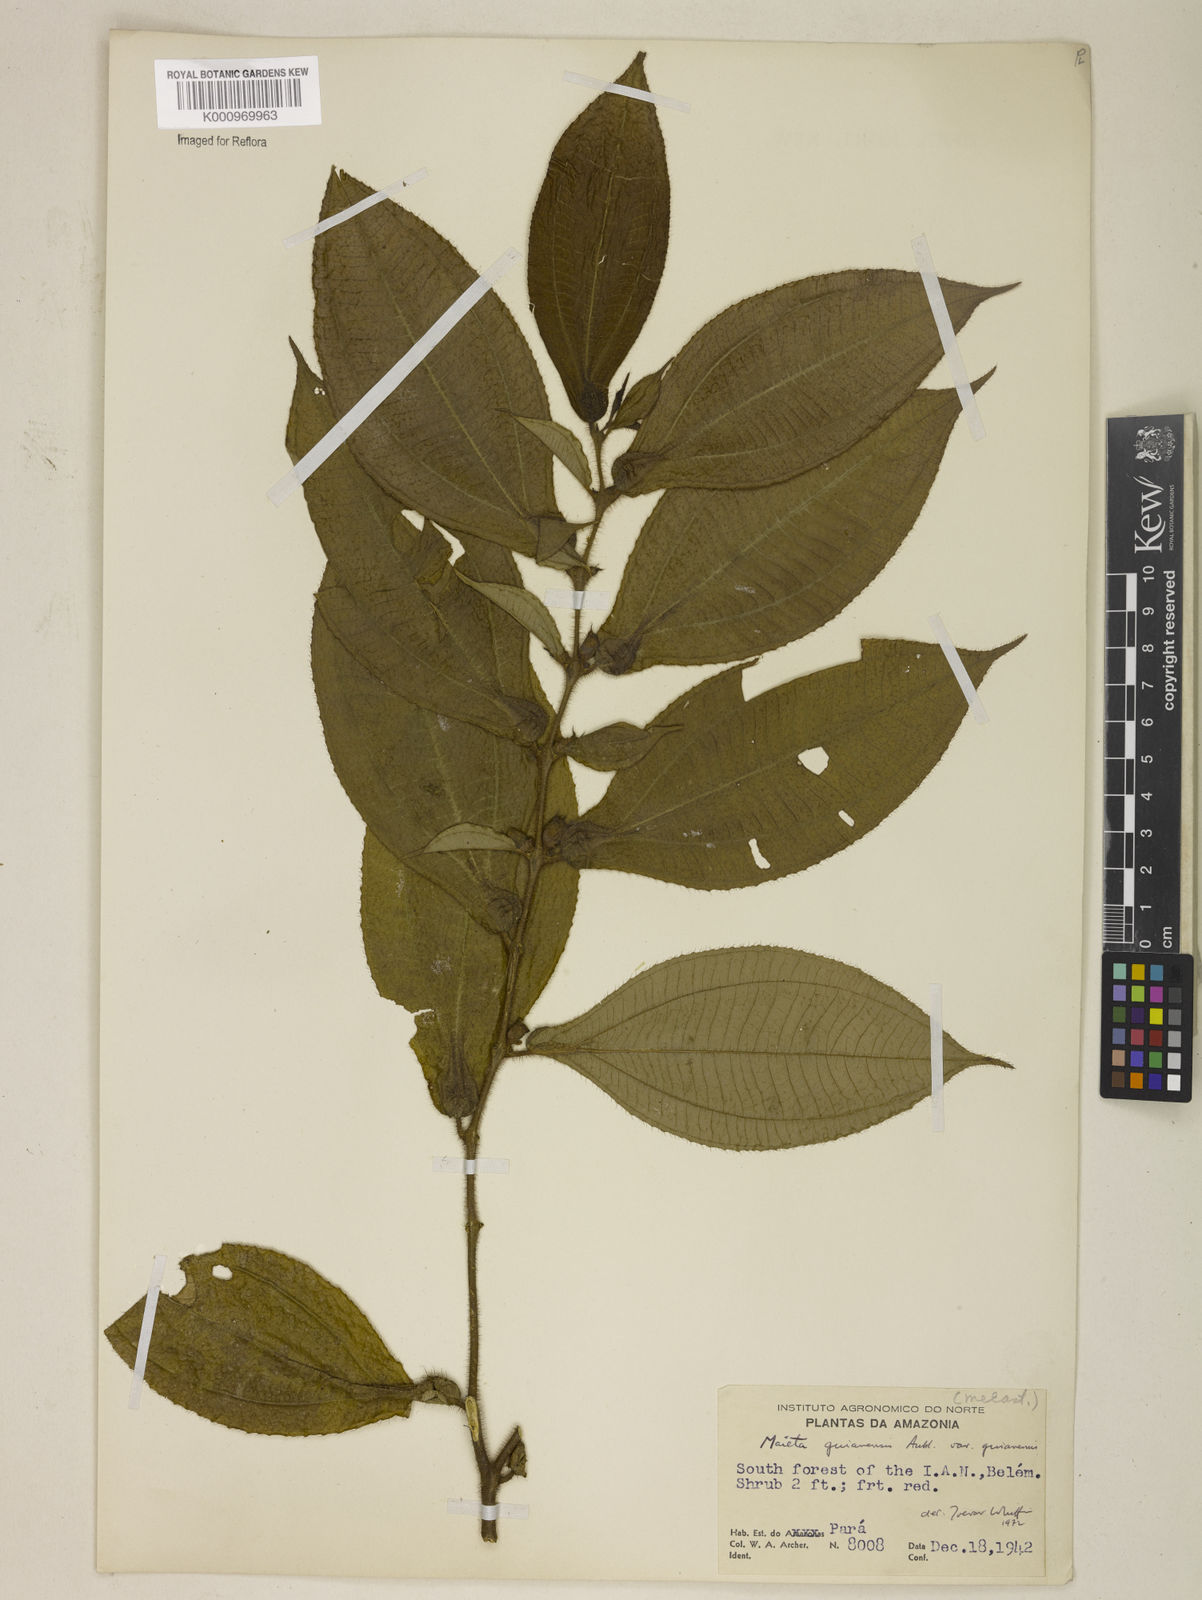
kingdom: Plantae
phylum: Tracheophyta
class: Magnoliopsida
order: Myrtales
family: Melastomataceae
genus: Miconia
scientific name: Miconia mayeta
